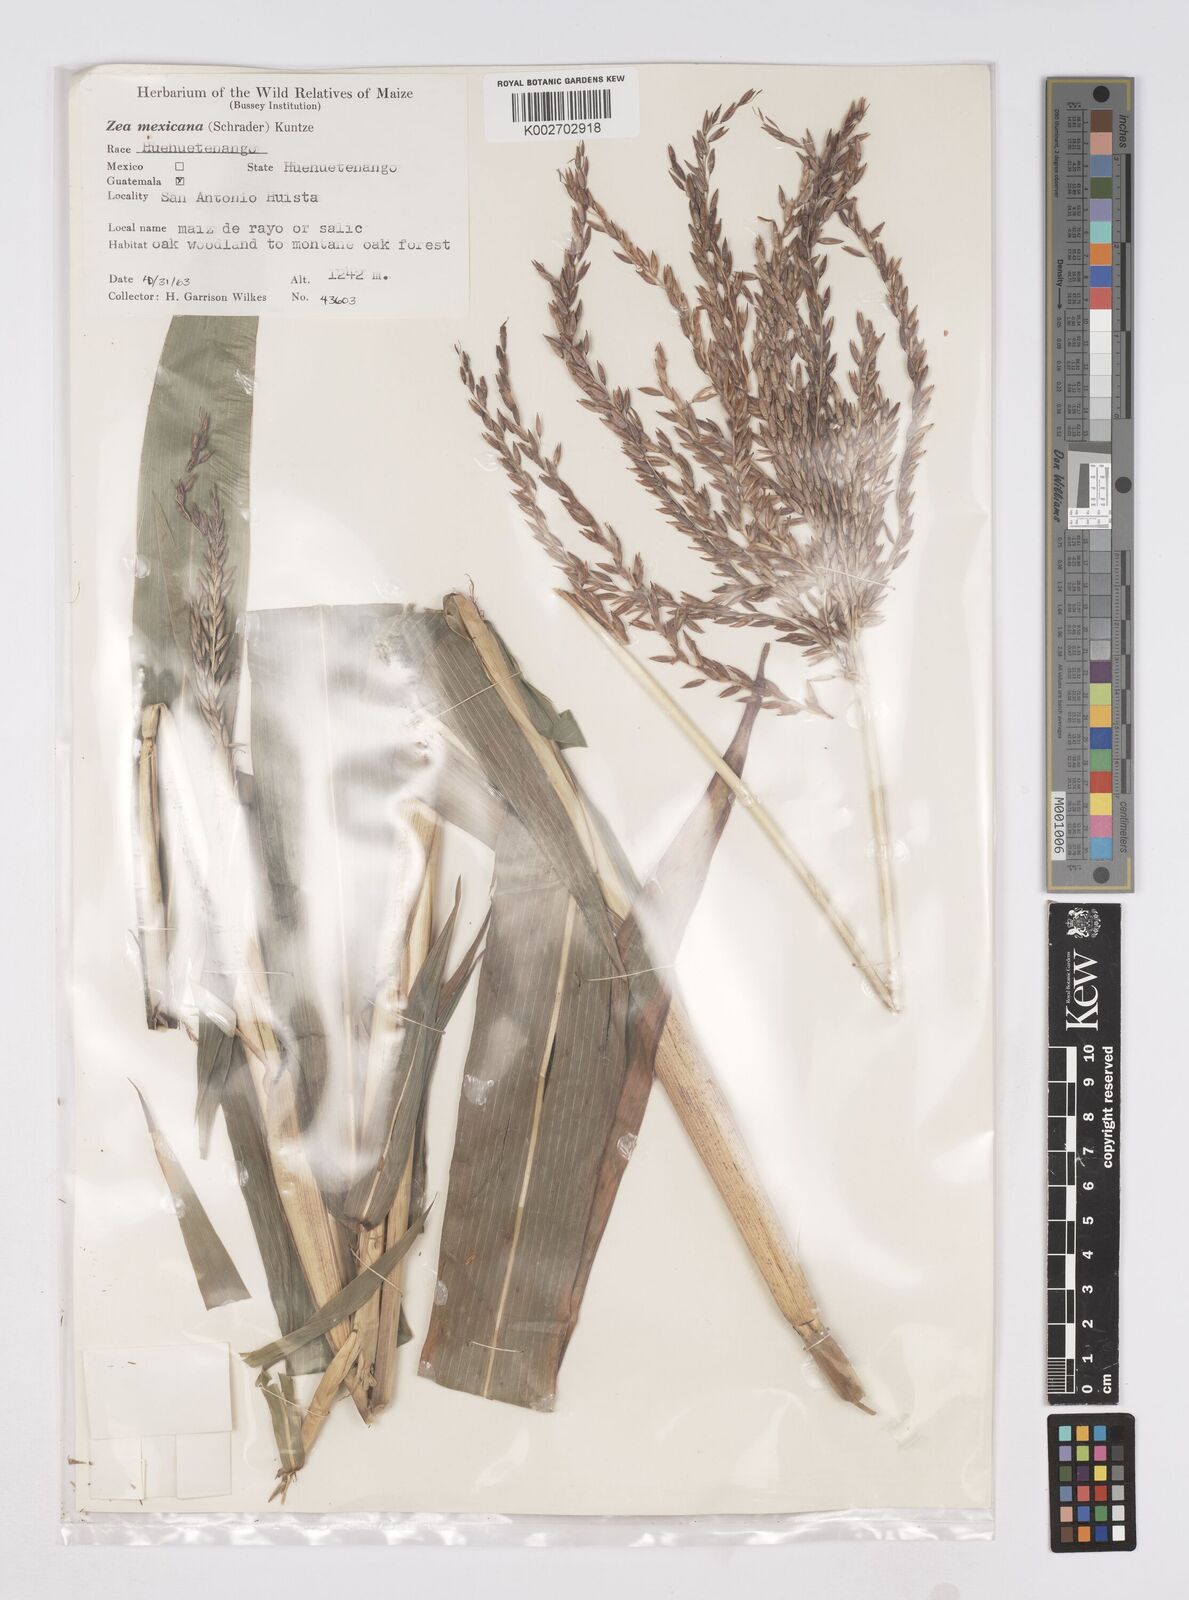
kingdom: Plantae
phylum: Tracheophyta
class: Liliopsida
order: Poales
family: Poaceae
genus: Zea
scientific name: Zea mays
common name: Maize
